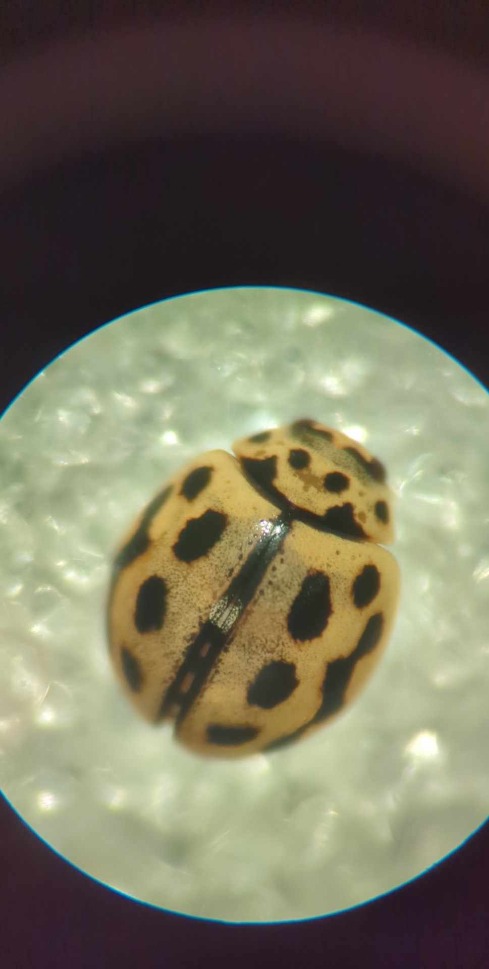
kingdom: Animalia
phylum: Arthropoda
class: Insecta
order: Coleoptera
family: Coccinellidae
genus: Tytthaspis
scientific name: Tytthaspis sedecimpunctata
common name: Sekstenprikket mariehøne
